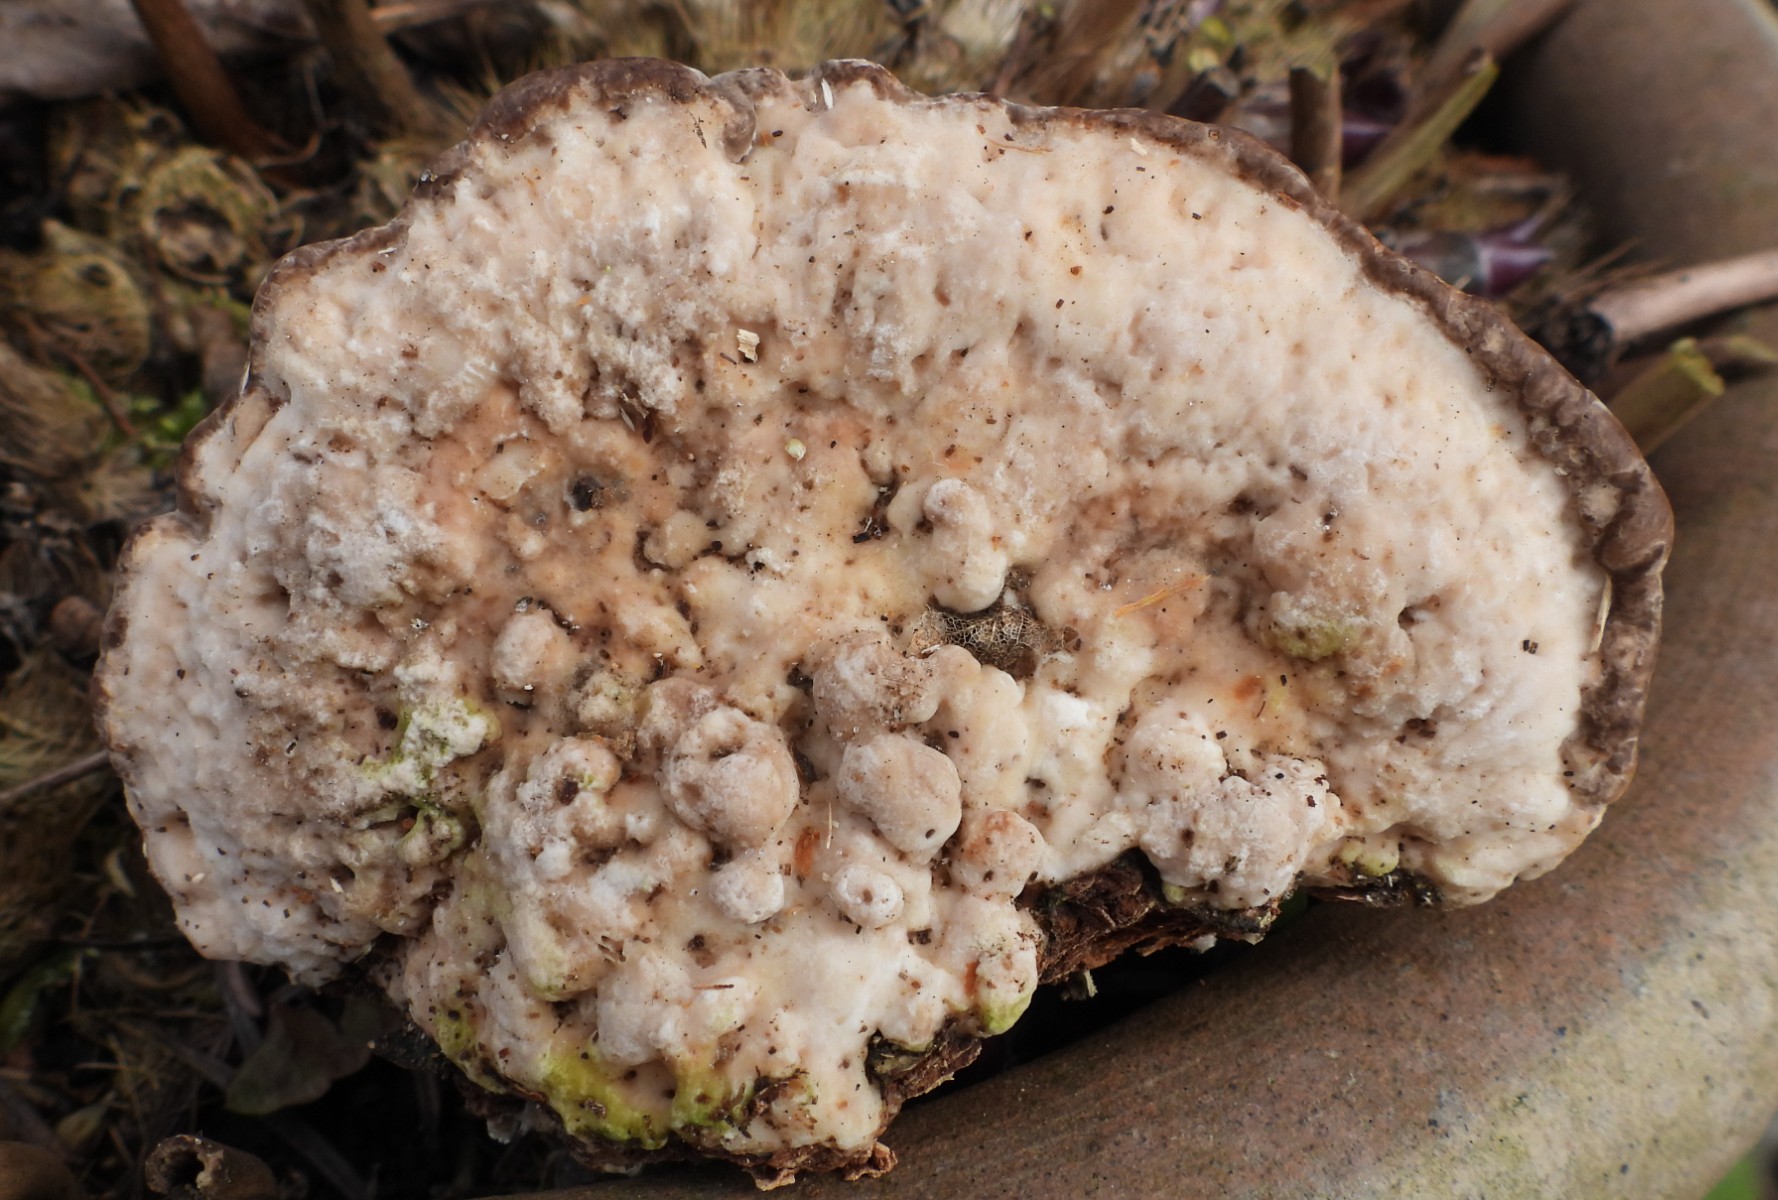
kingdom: Fungi
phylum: Basidiomycota
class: Agaricomycetes
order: Polyporales
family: Polyporaceae
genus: Trametes
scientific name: Trametes gibbosa
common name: puklet læderporesvamp
